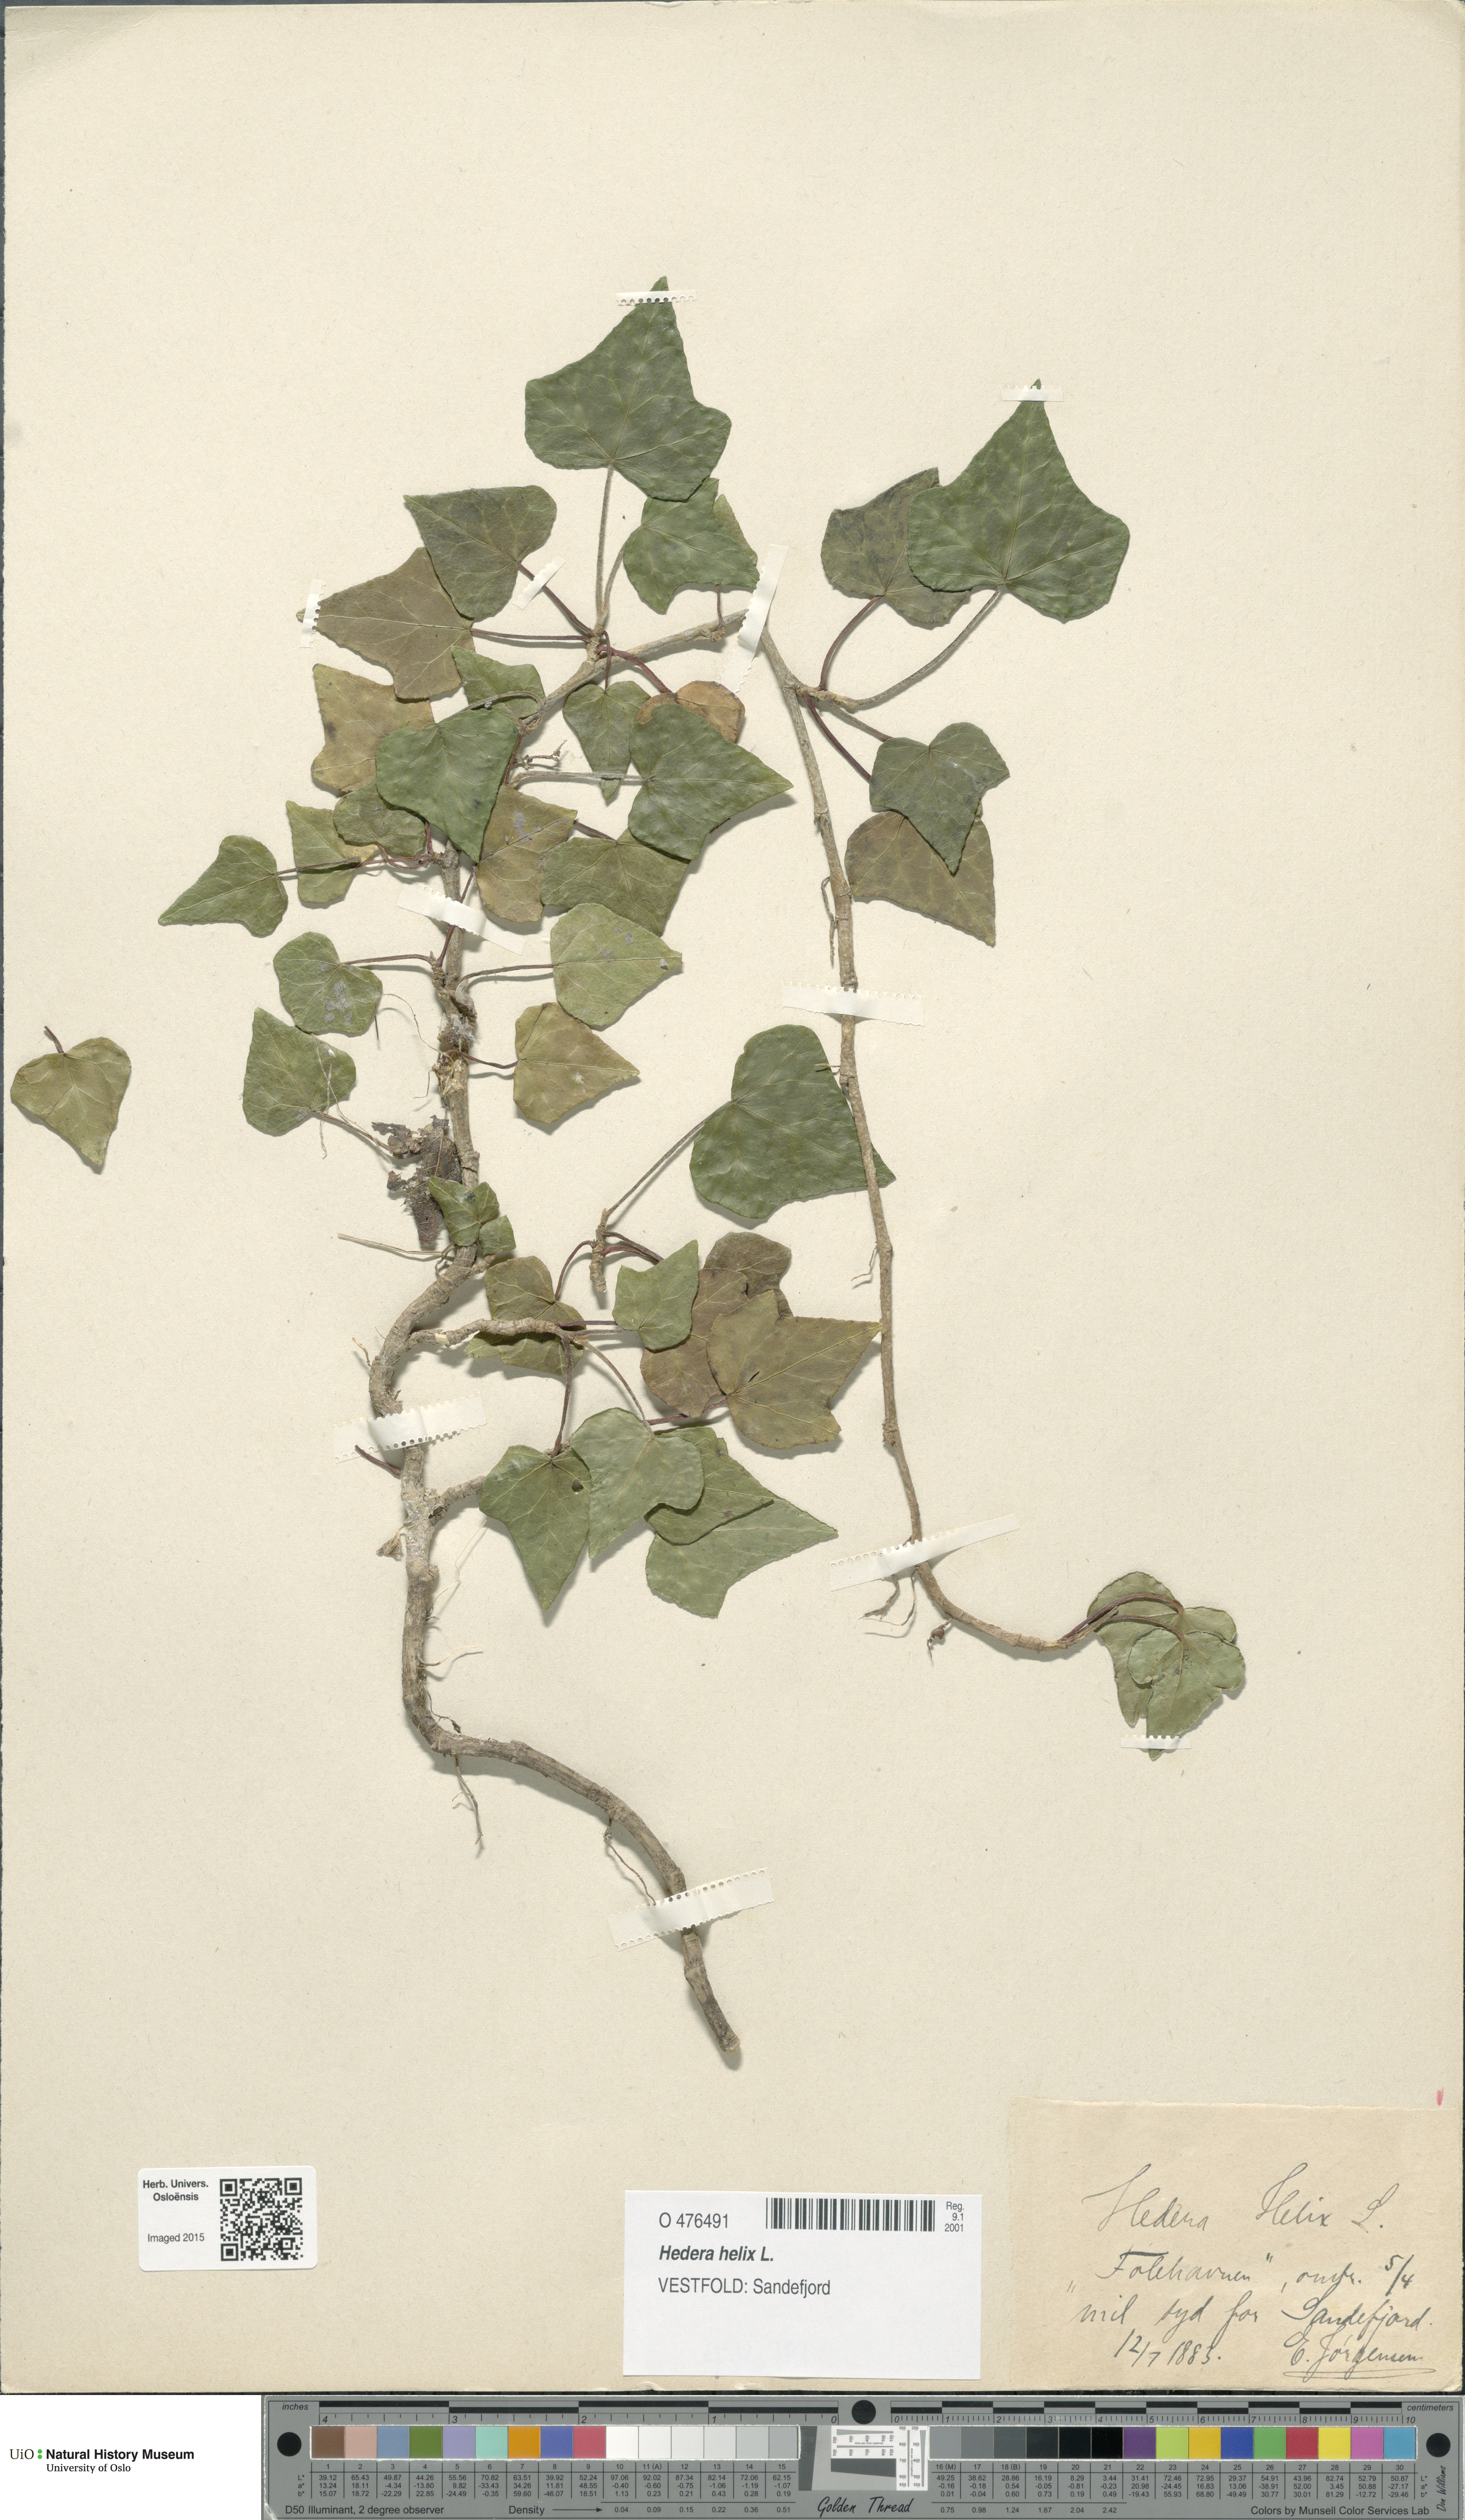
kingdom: Plantae
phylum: Tracheophyta
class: Magnoliopsida
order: Apiales
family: Araliaceae
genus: Hedera
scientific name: Hedera helix
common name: Ivy
